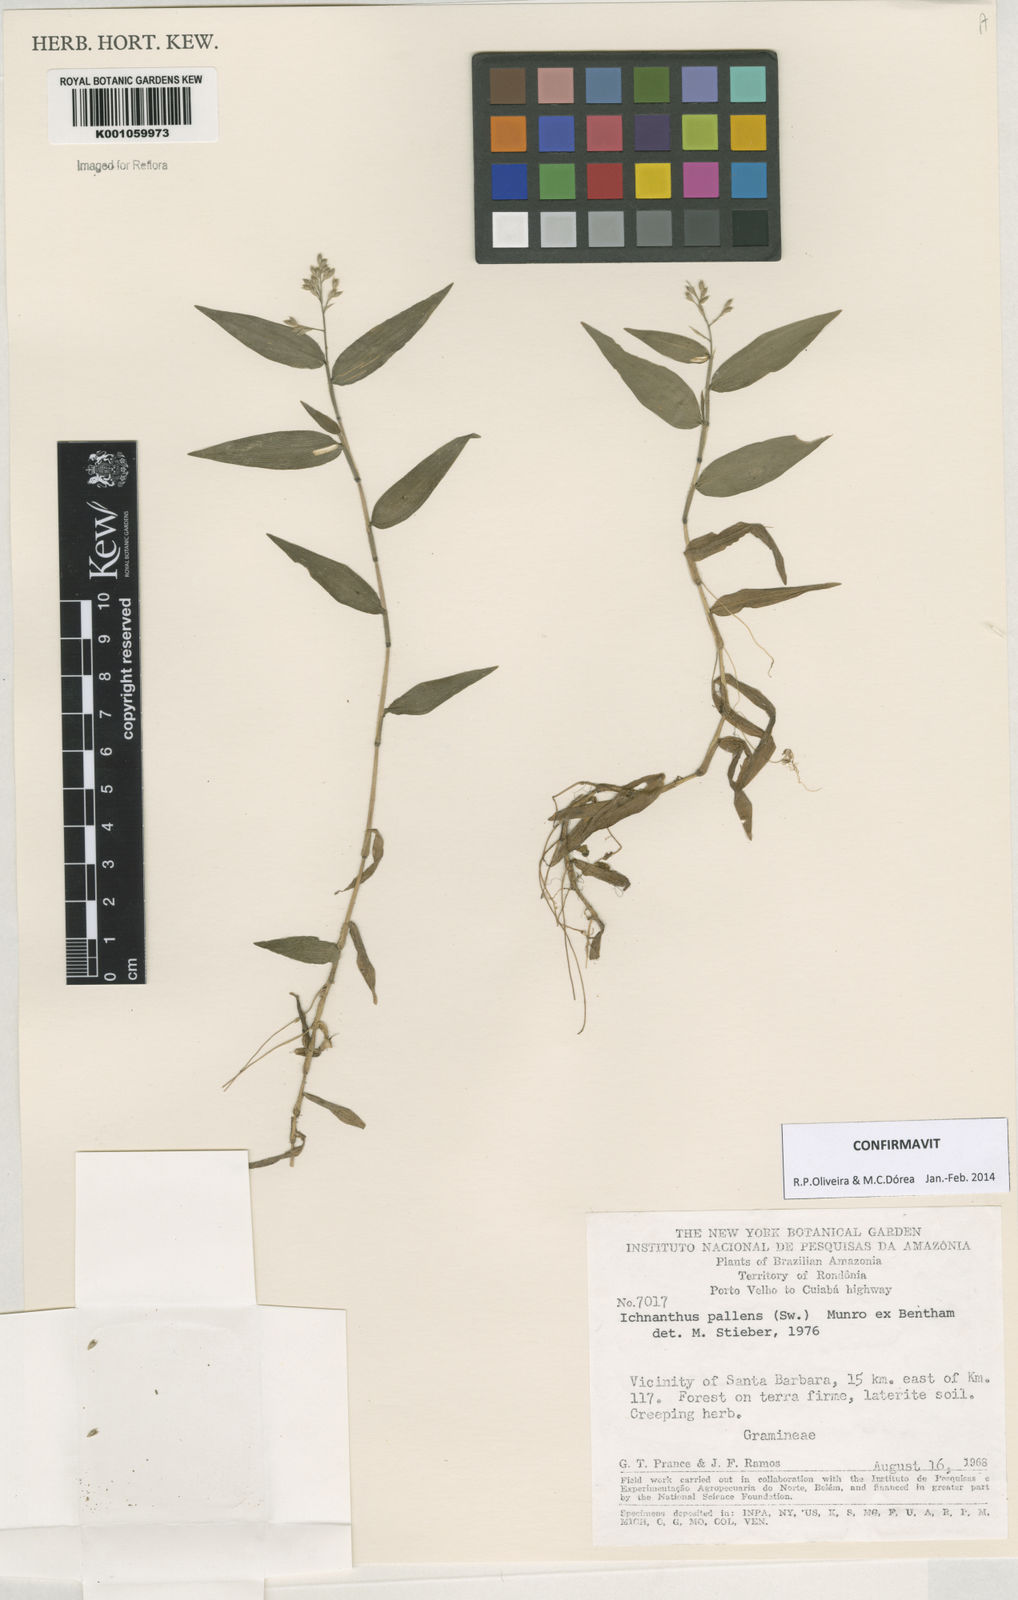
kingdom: Plantae
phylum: Tracheophyta
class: Liliopsida
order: Poales
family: Poaceae
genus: Ichnanthus
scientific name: Ichnanthus pallens
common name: Water grass
